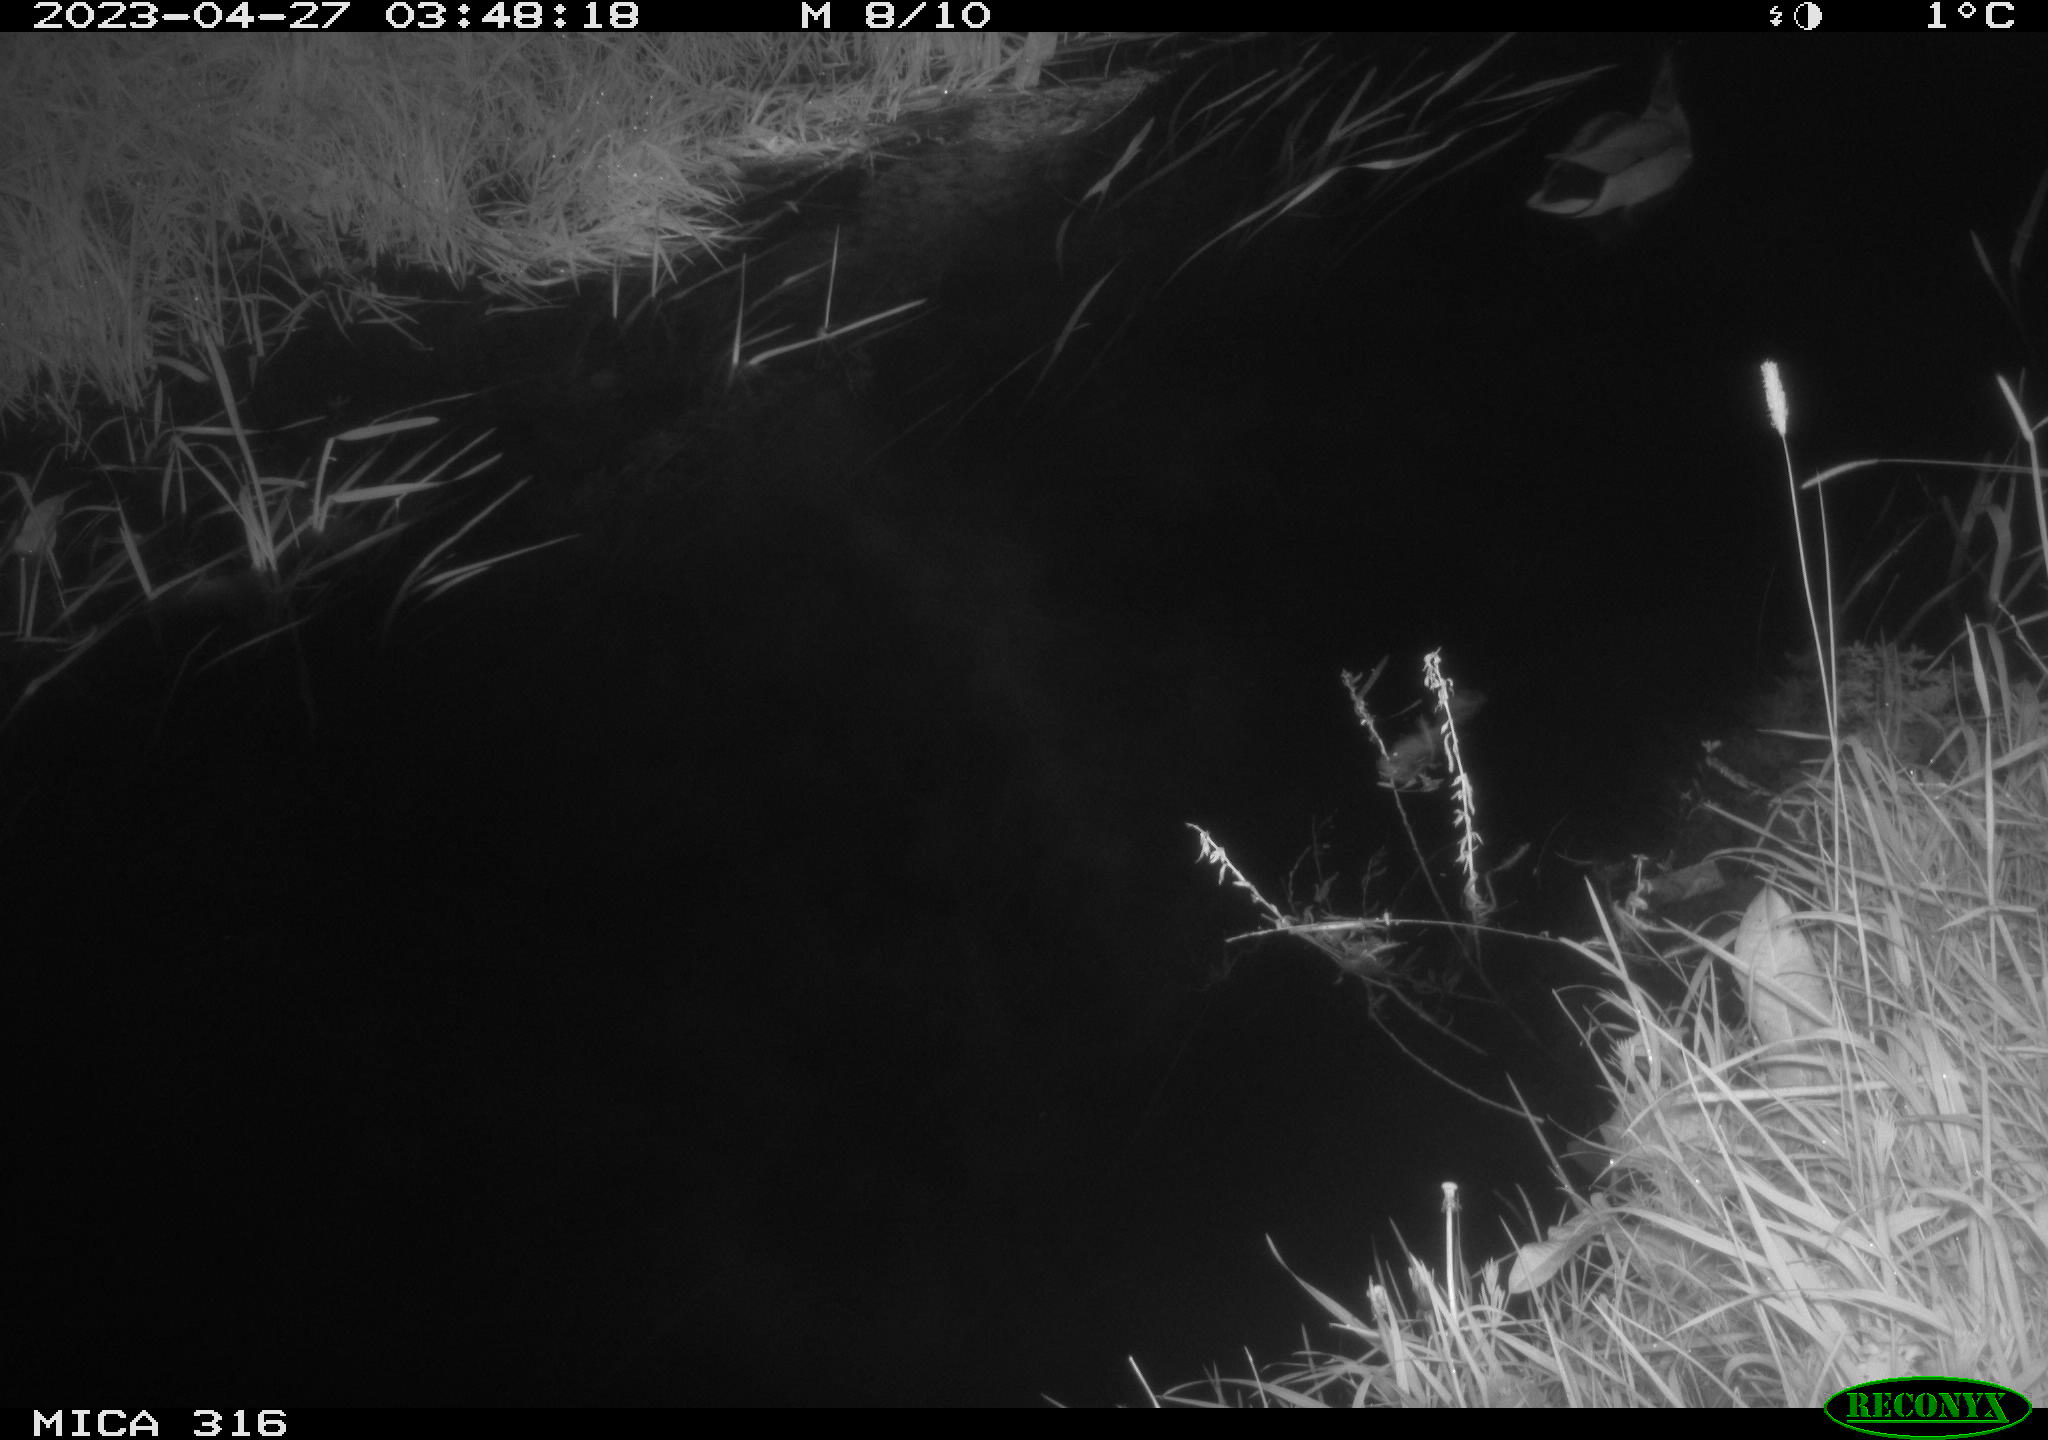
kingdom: Animalia
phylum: Chordata
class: Aves
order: Anseriformes
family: Anatidae
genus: Anas
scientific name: Anas
